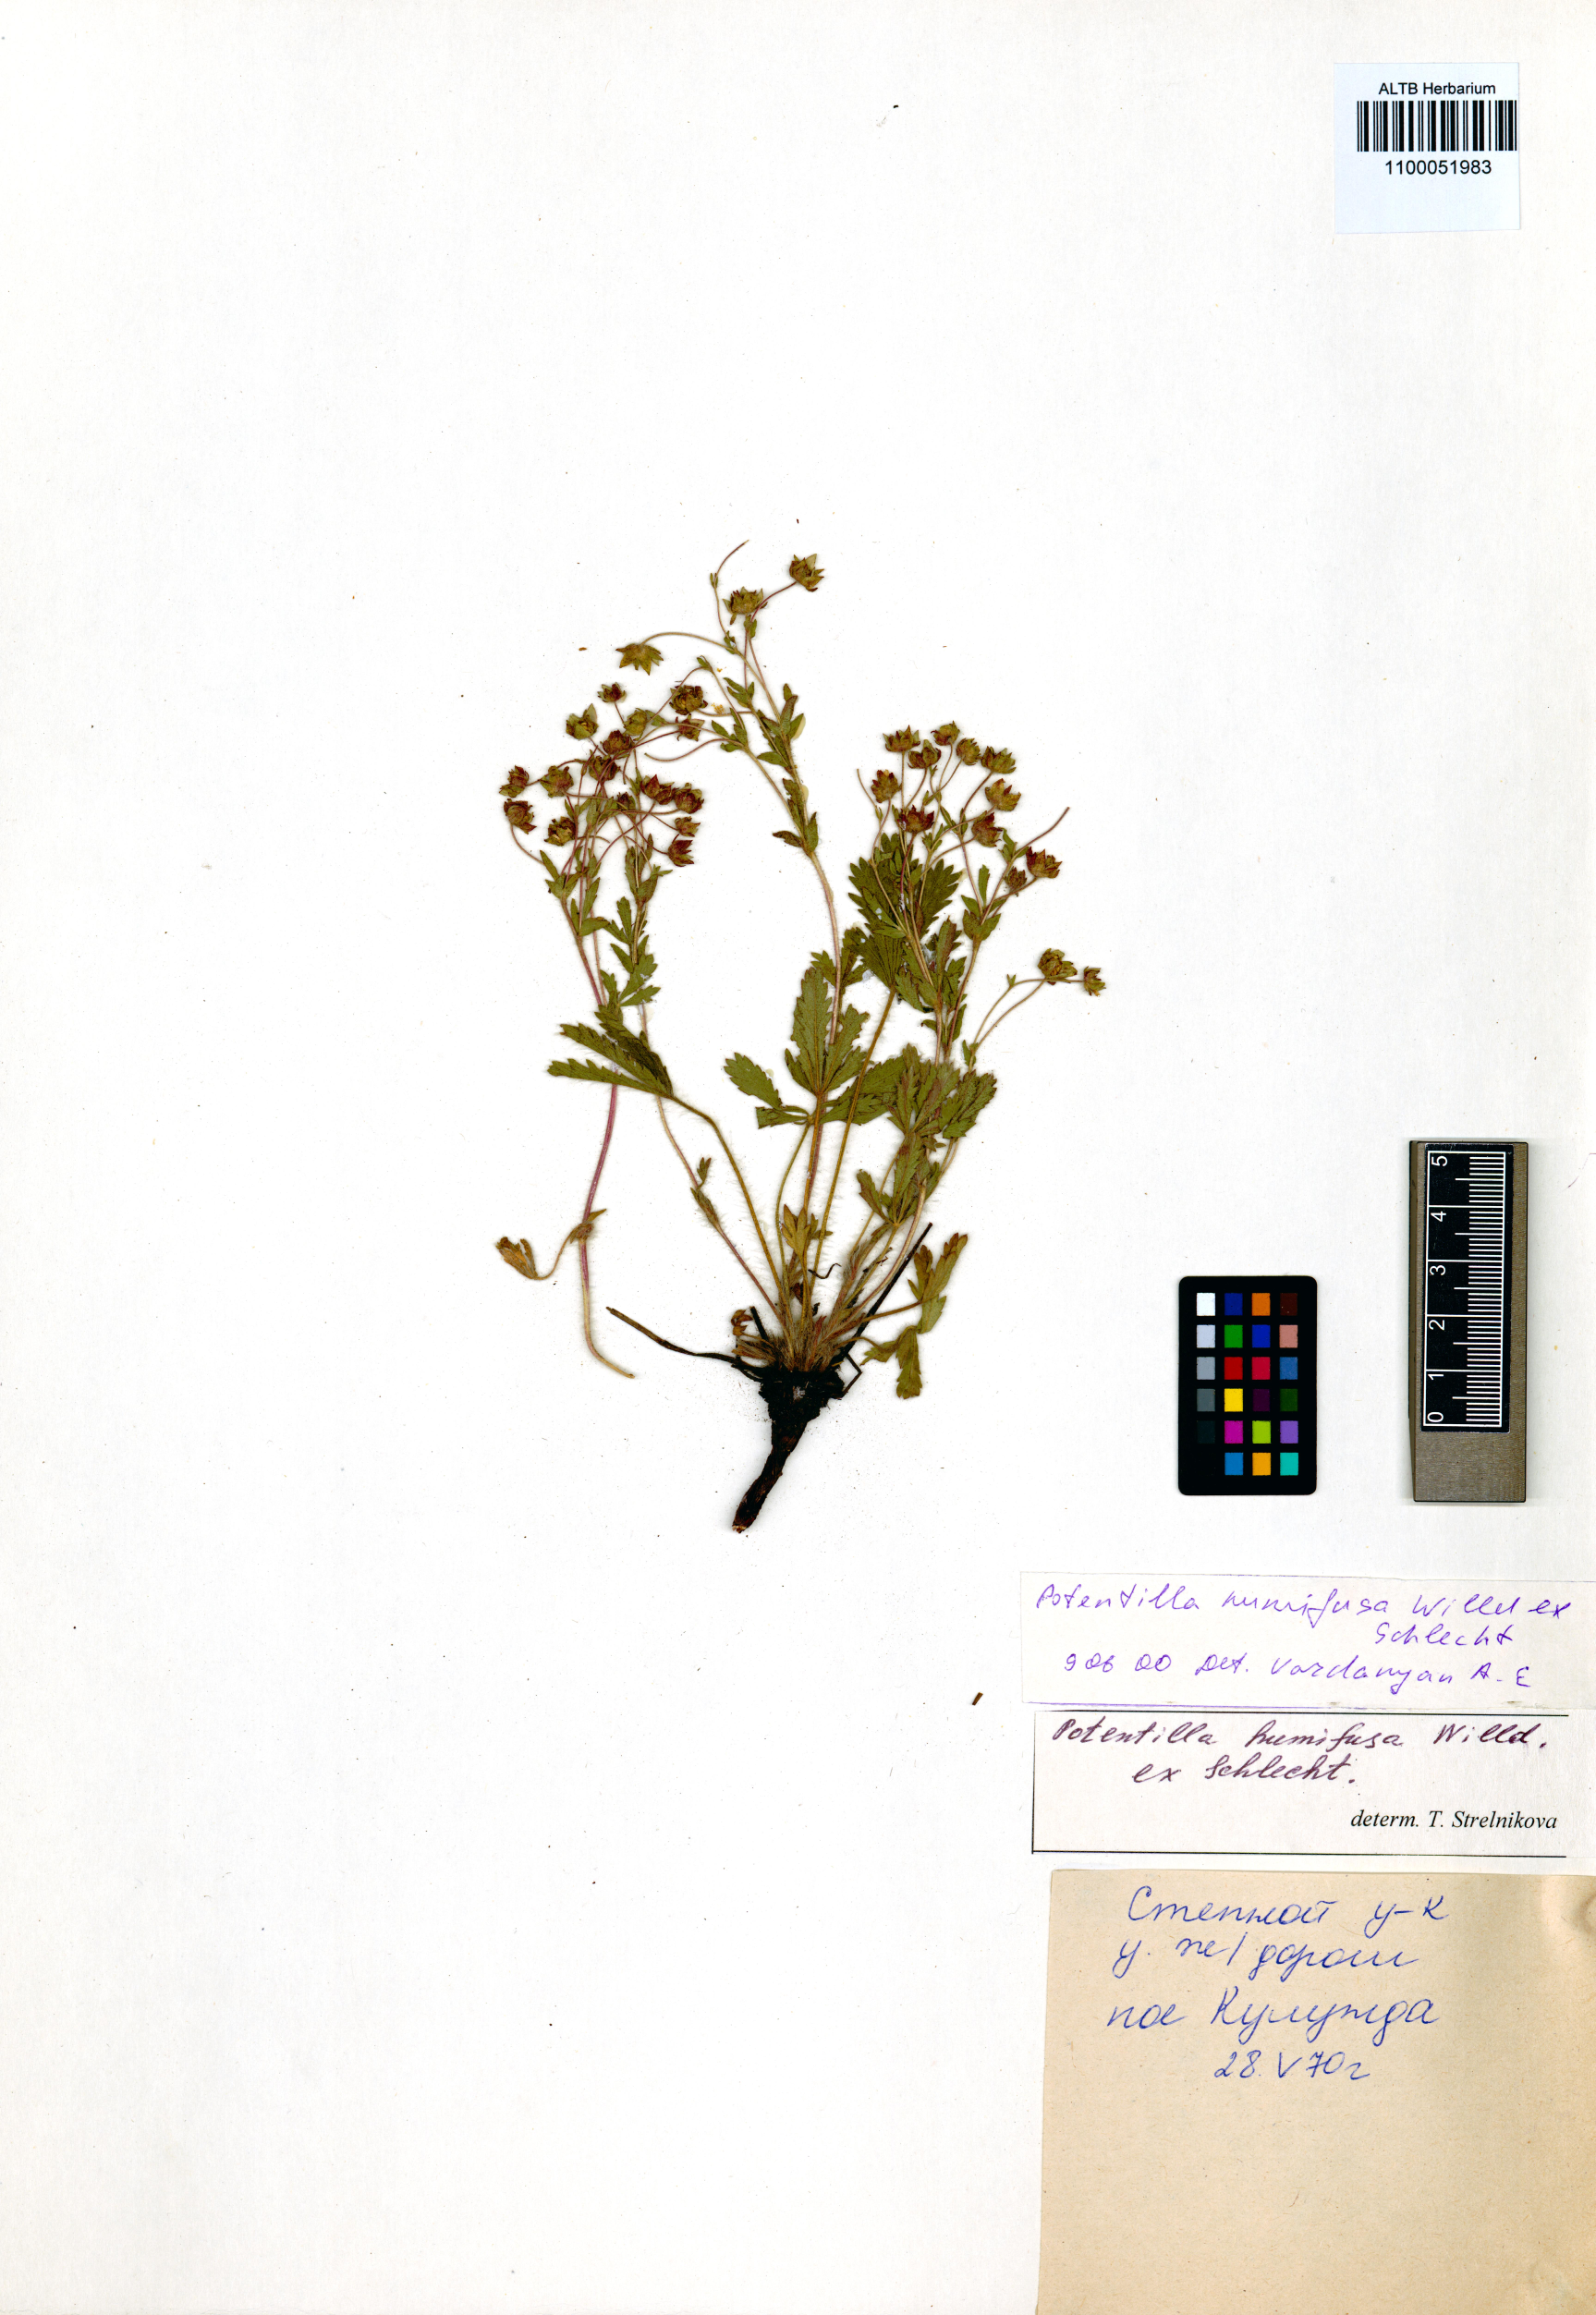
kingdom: Plantae
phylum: Tracheophyta
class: Magnoliopsida
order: Rosales
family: Rosaceae
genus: Potentilla
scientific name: Potentilla humifusa
